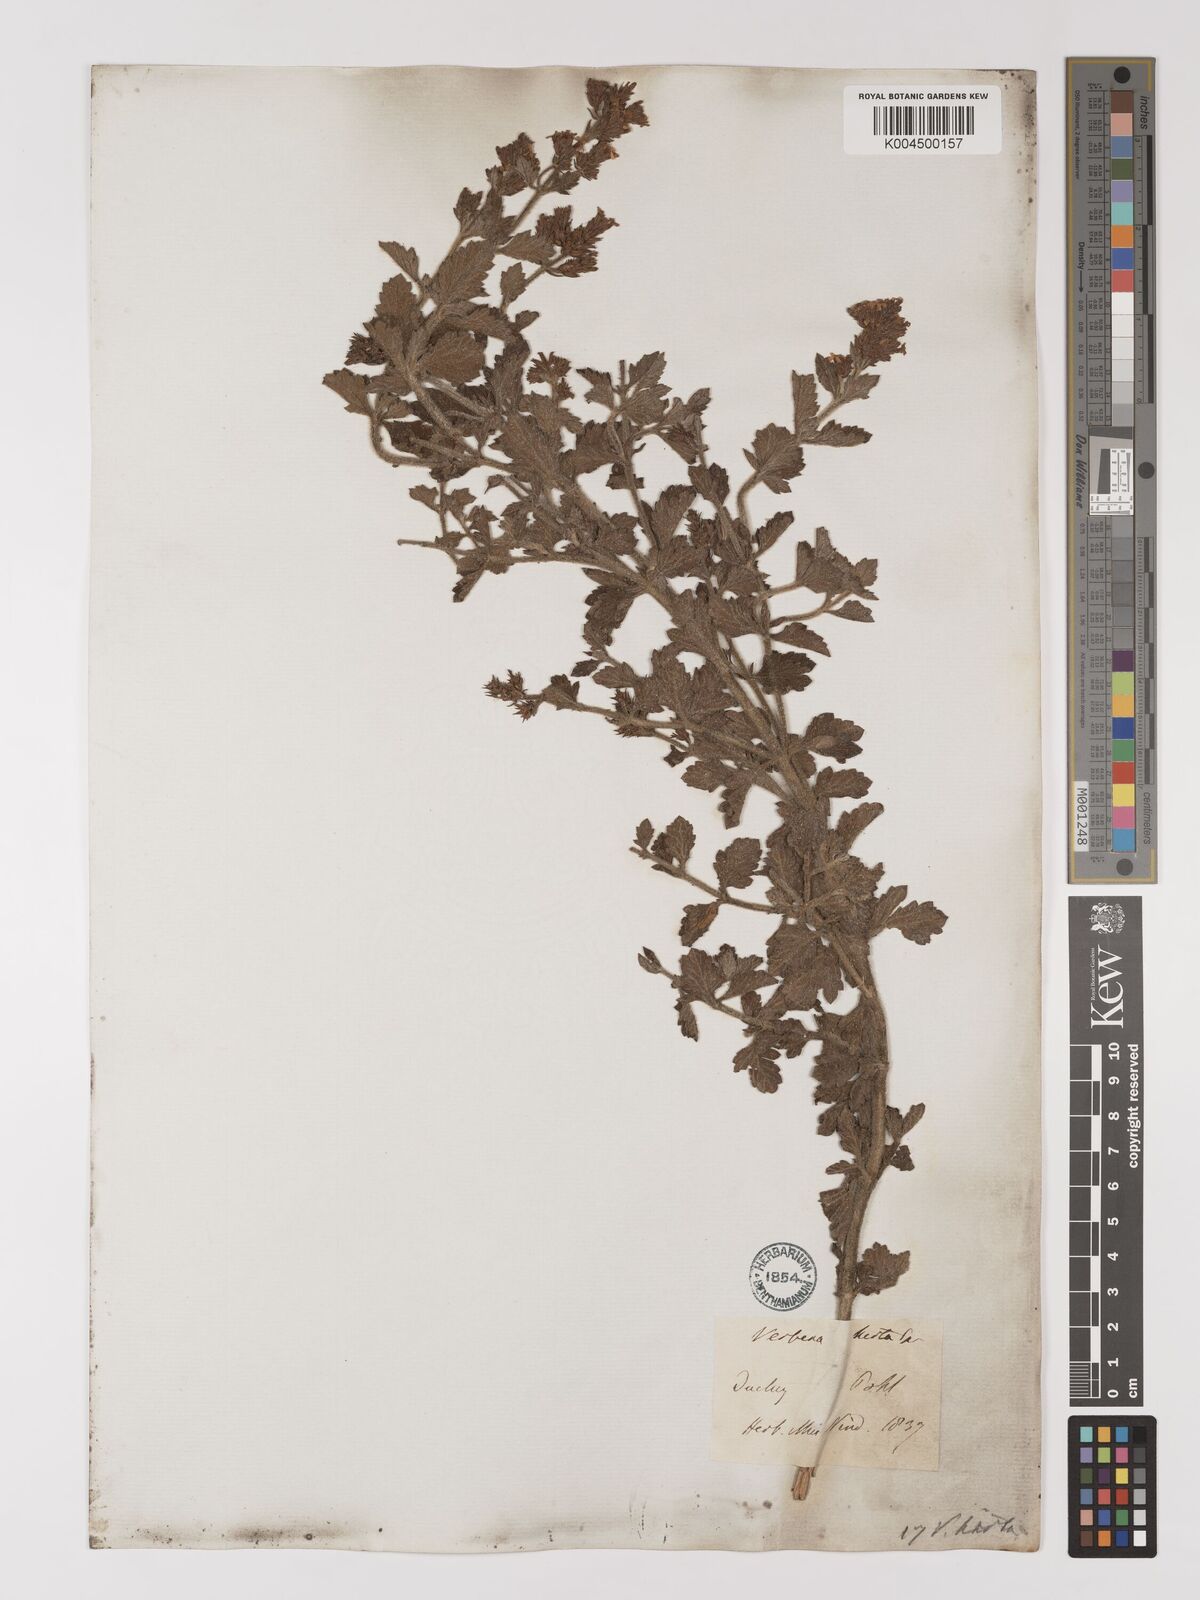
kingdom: Plantae
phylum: Tracheophyta
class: Magnoliopsida
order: Lamiales
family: Verbenaceae
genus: Verbena
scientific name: Verbena hirta
